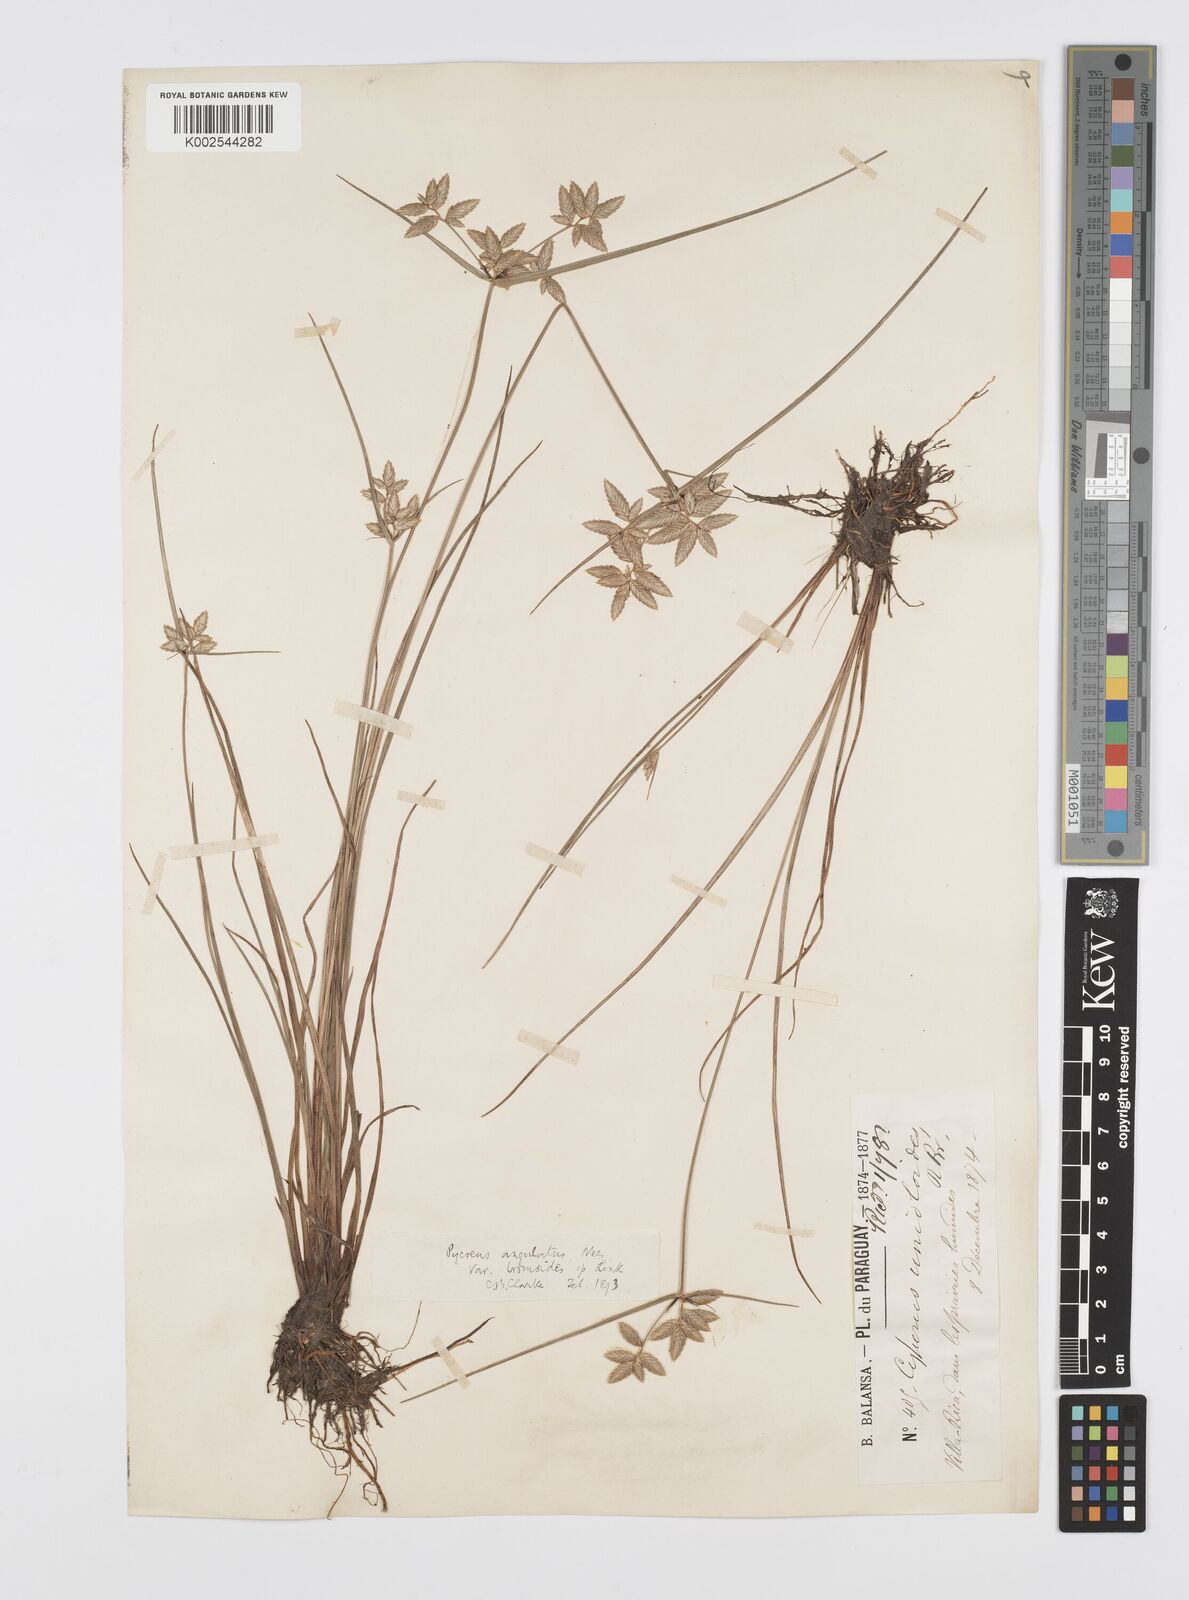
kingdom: Plantae
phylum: Tracheophyta
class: Liliopsida
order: Poales
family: Cyperaceae
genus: Cyperus
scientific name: Cyperus unioloides
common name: Uniola flatsedge
